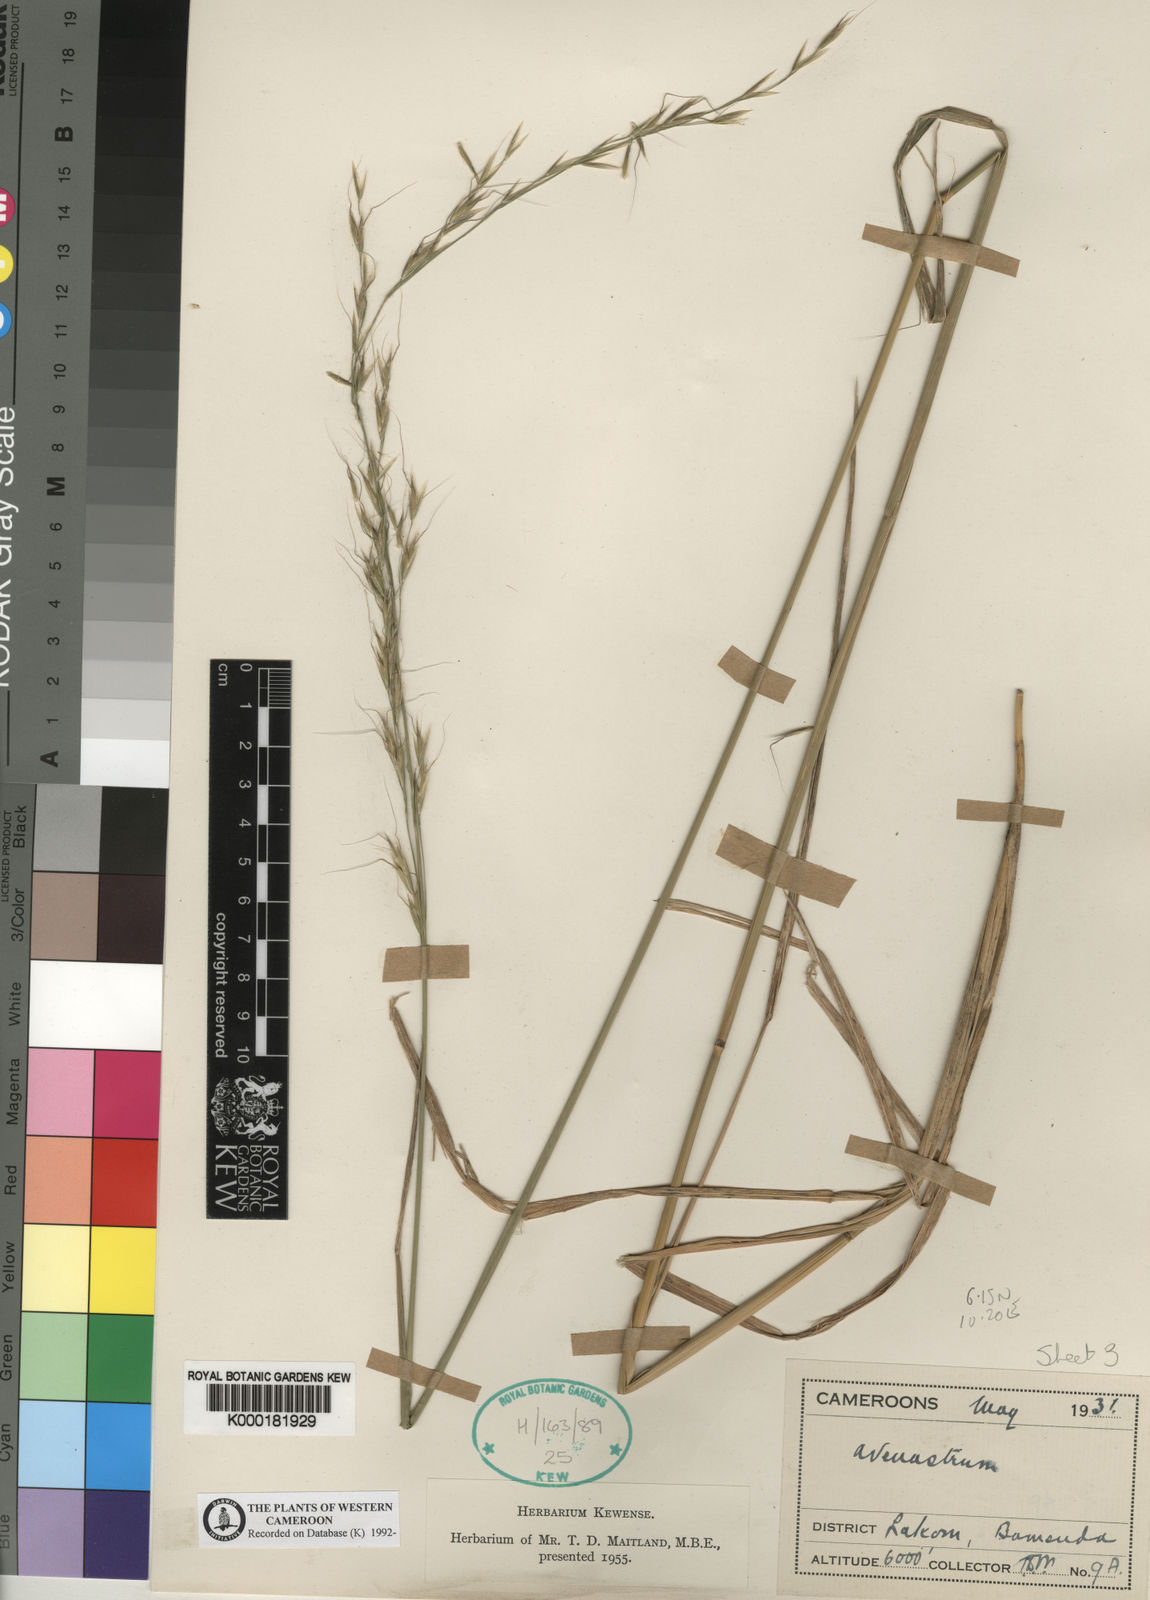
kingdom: Plantae
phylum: Tracheophyta
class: Liliopsida
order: Poales
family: Poaceae
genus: Trisetopsis
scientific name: Trisetopsis elongata
